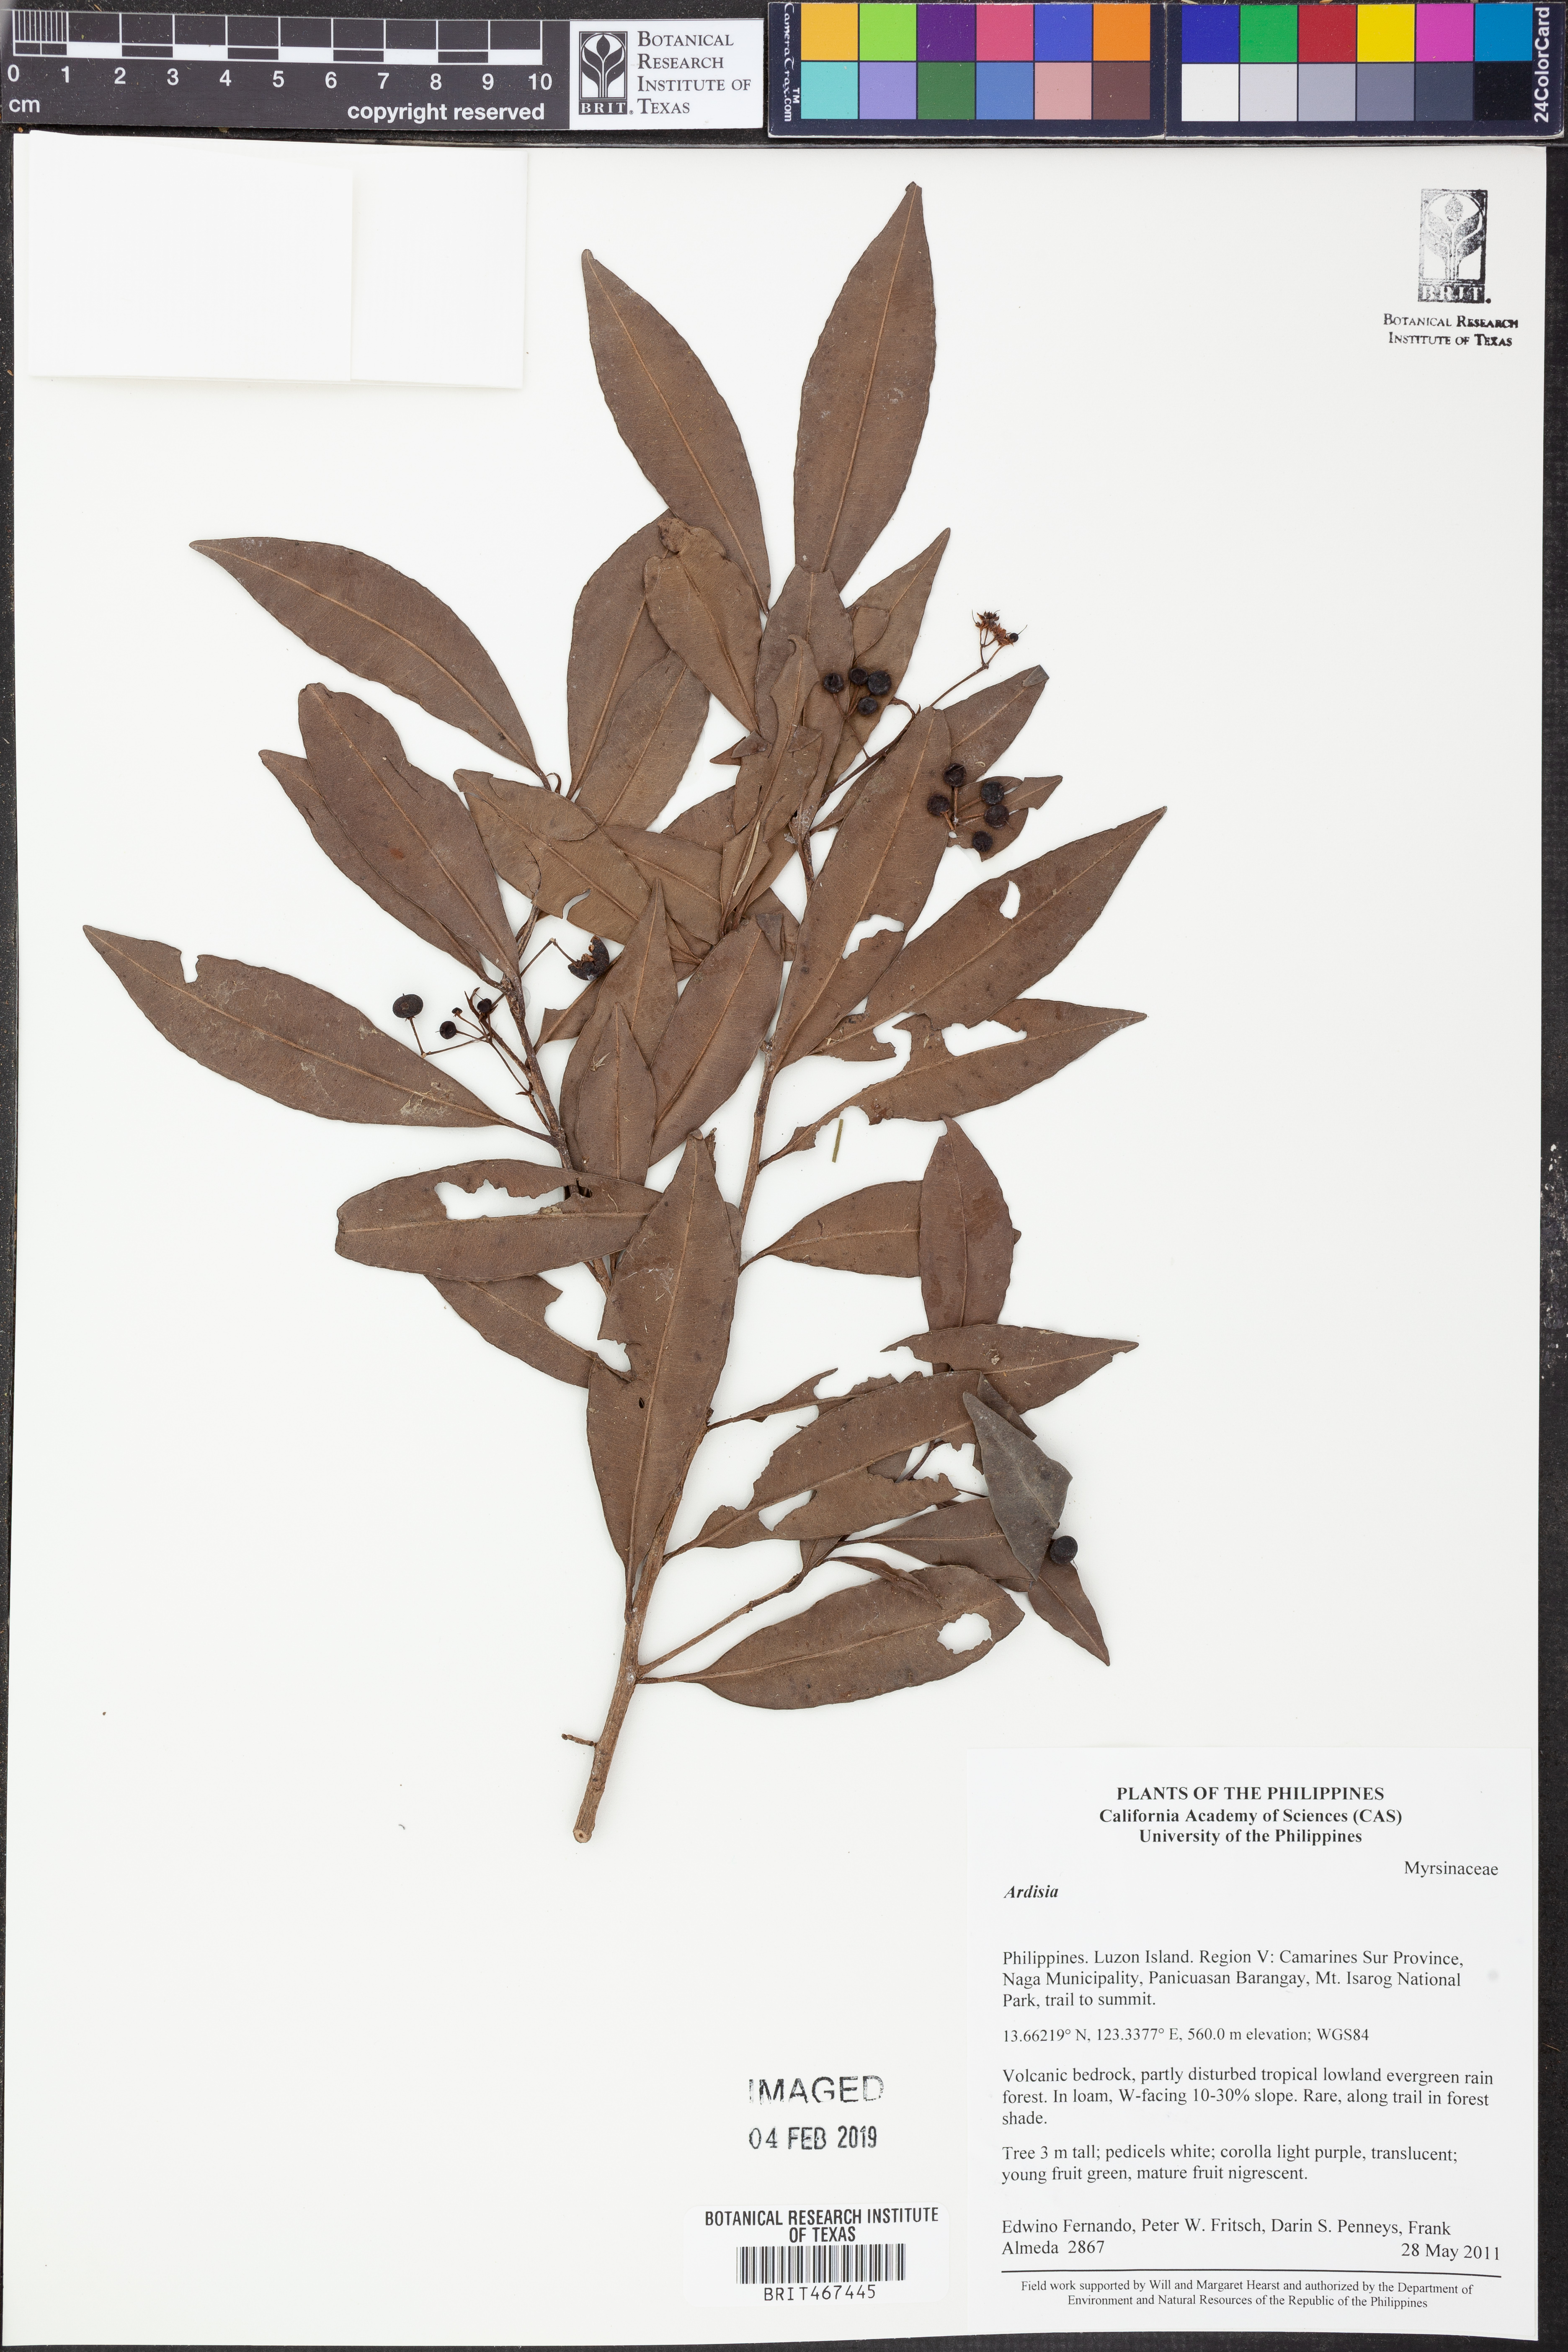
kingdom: Plantae
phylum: Tracheophyta
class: Magnoliopsida
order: Ericales
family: Primulaceae
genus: Ardisia
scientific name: Ardisia
